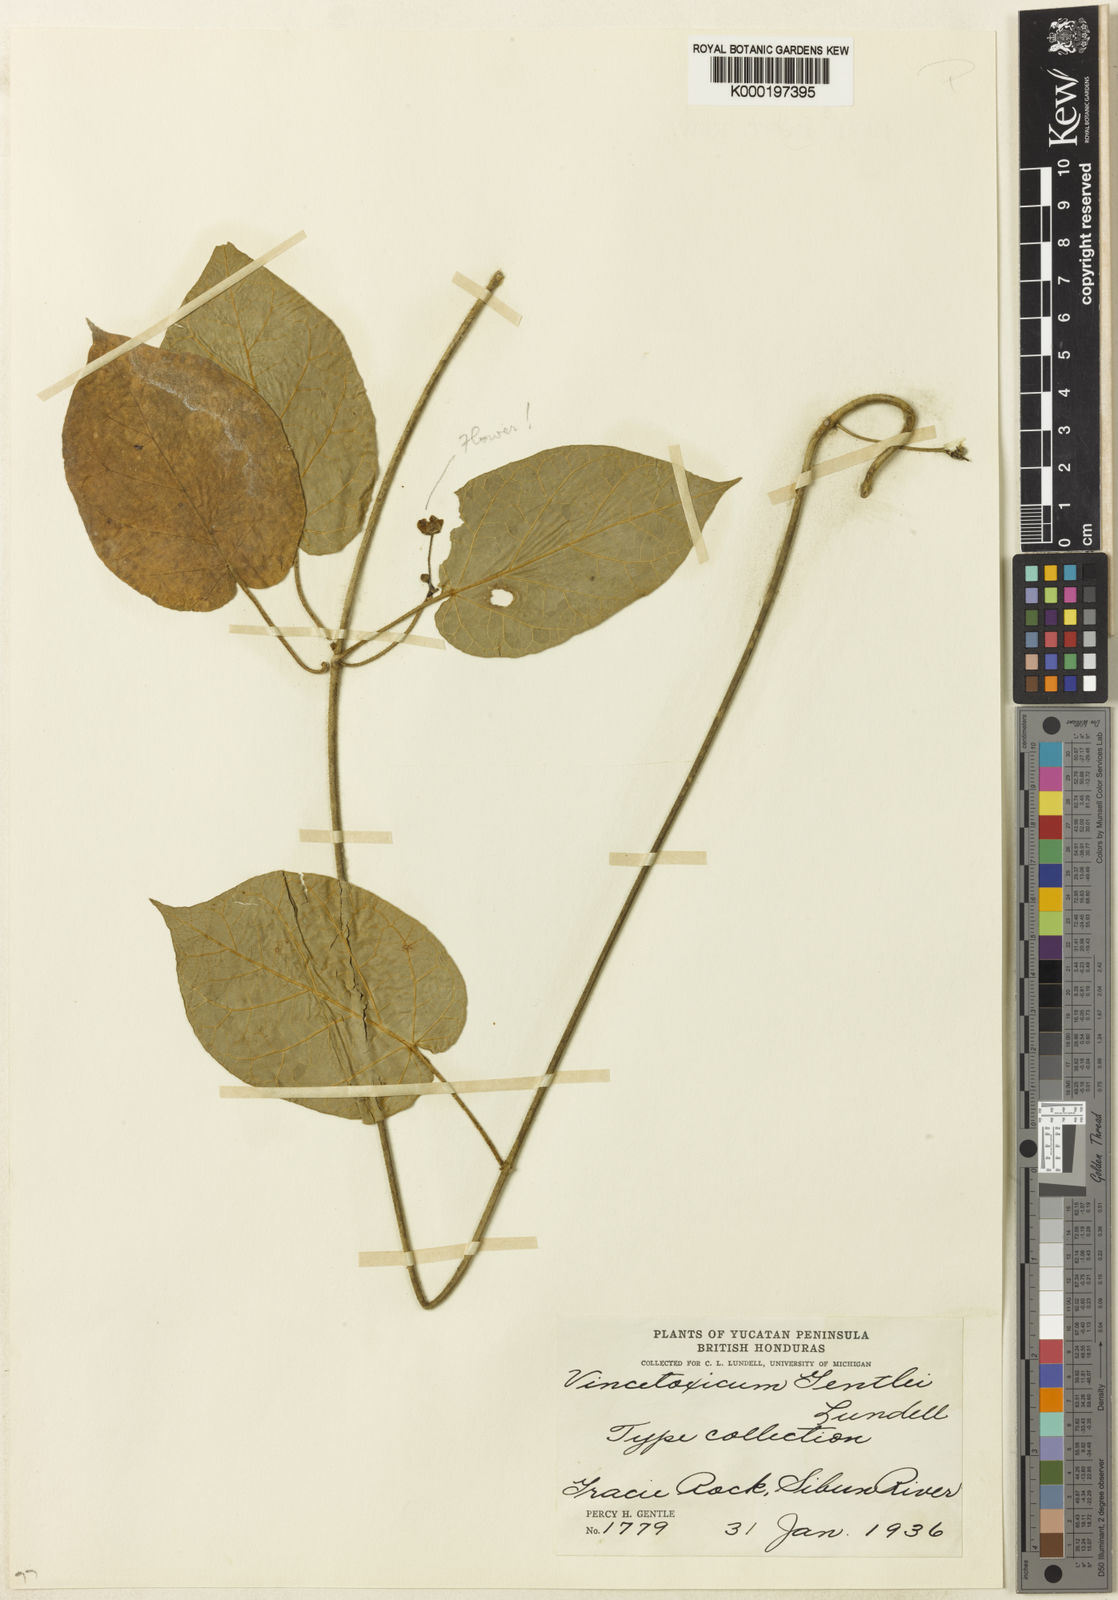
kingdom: Plantae
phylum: Tracheophyta
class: Magnoliopsida
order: Gentianales
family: Apocynaceae
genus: Matelea
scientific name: Matelea gentlei
